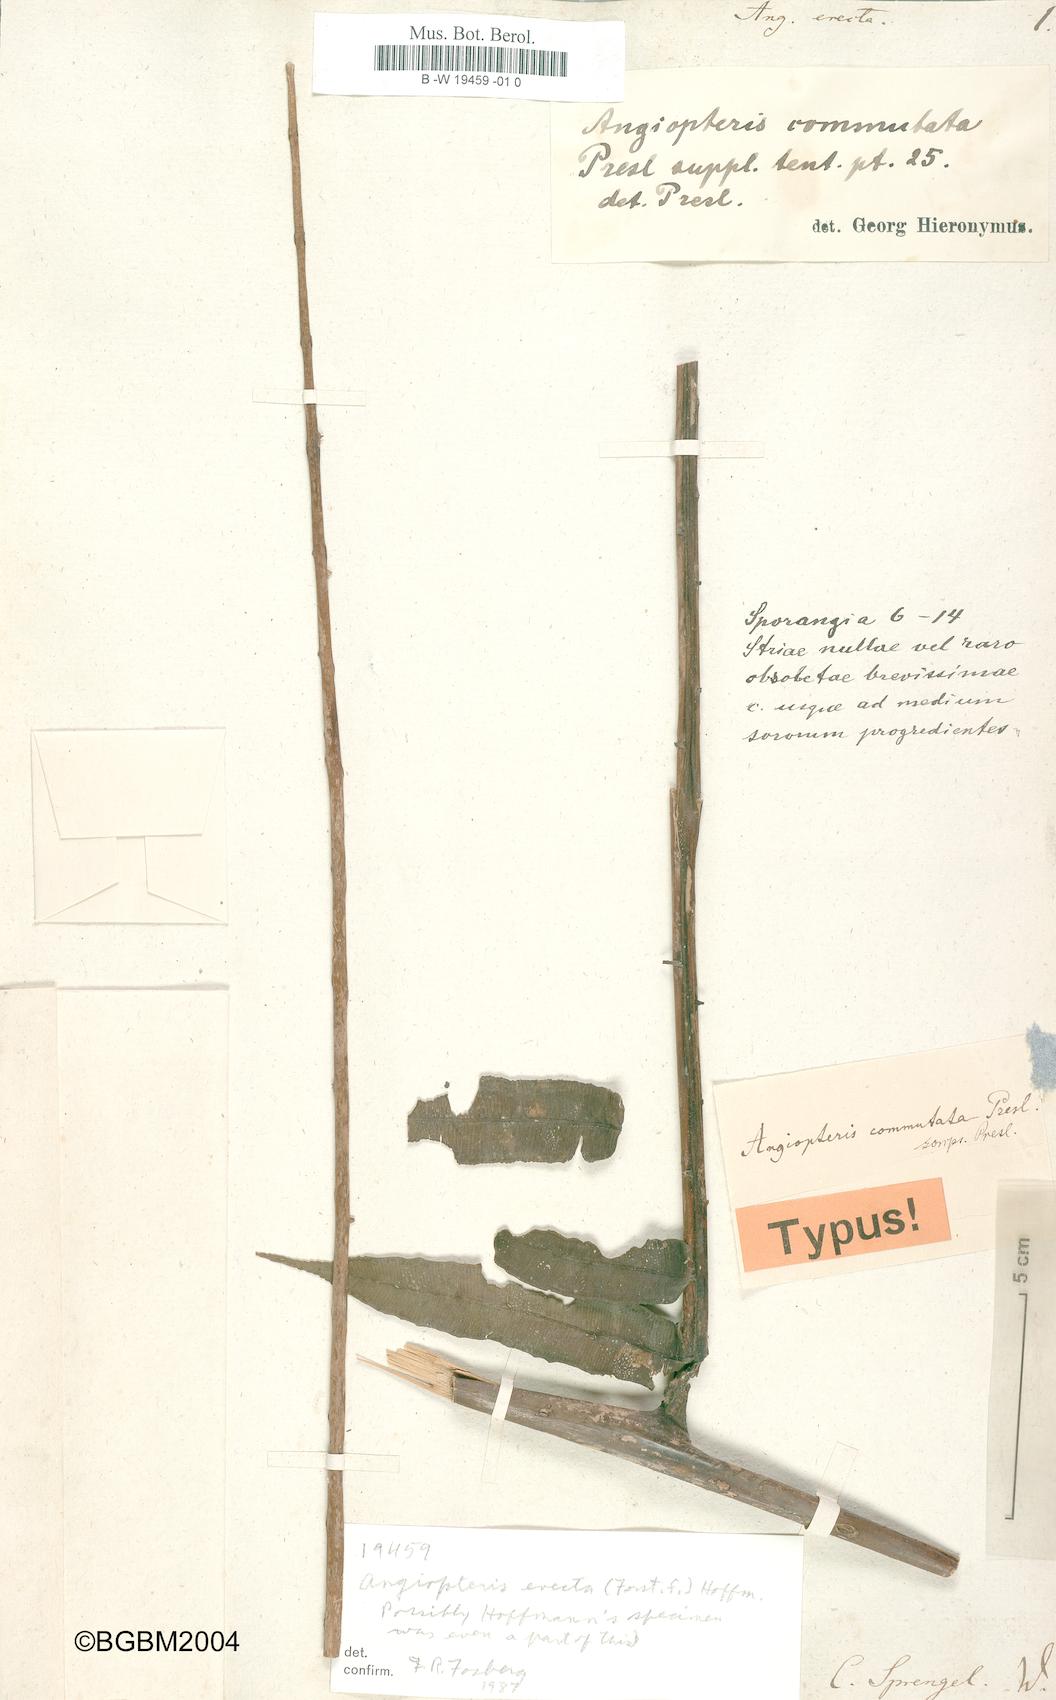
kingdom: Plantae
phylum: Tracheophyta
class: Polypodiopsida
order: Marattiales
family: Marattiaceae
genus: Angiopteris
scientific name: Angiopteris evecta
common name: Mule's-foot fern
